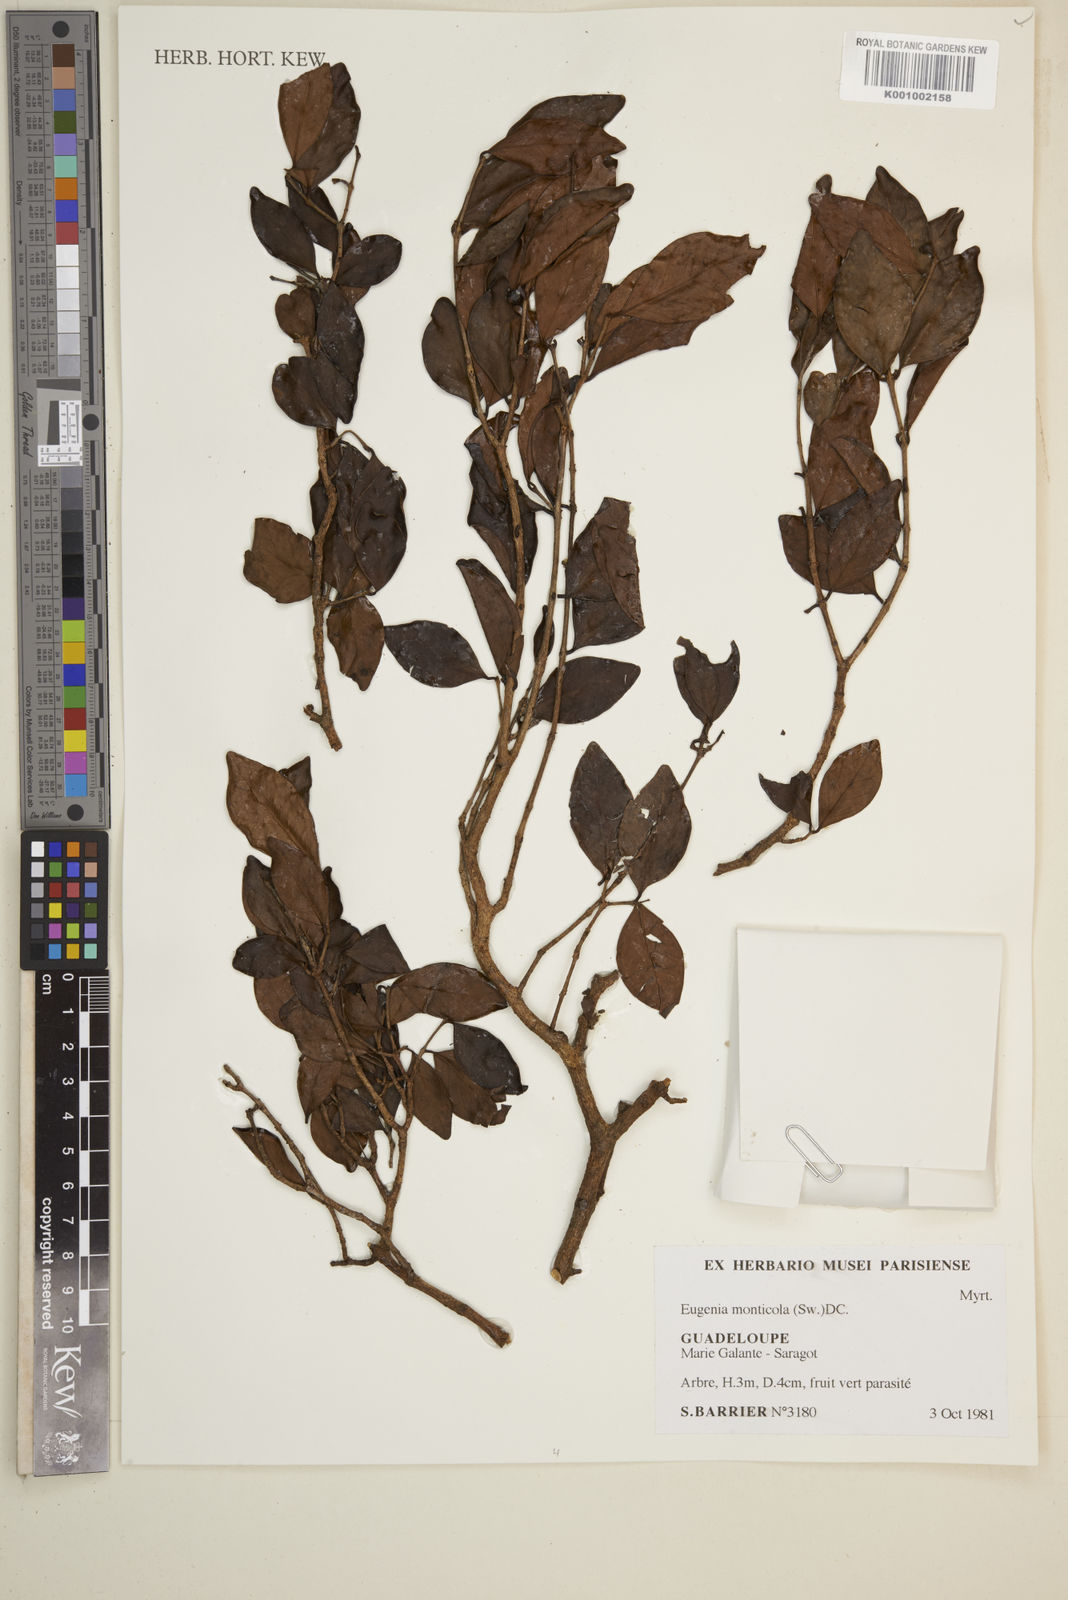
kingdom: Plantae
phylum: Tracheophyta
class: Magnoliopsida
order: Myrtales
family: Myrtaceae
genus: Eugenia
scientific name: Eugenia monticola
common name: Birds berry
